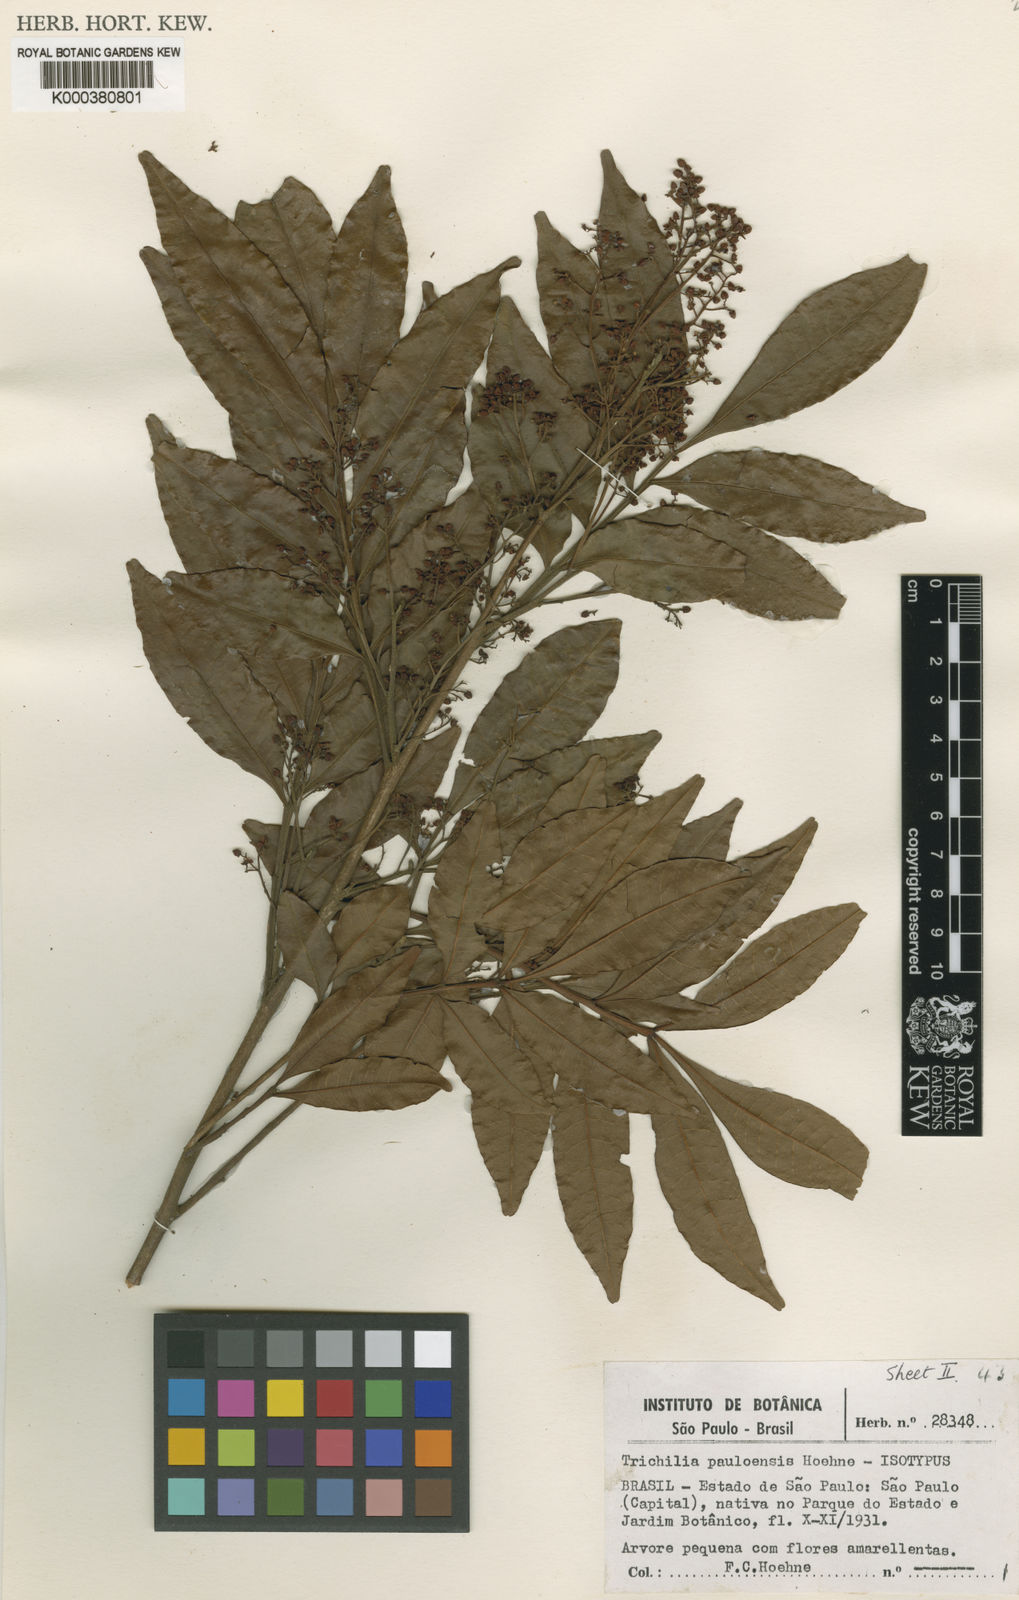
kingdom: Plantae
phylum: Tracheophyta
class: Magnoliopsida
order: Sapindales
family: Meliaceae
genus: Trichilia
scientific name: Trichilia emarginata
